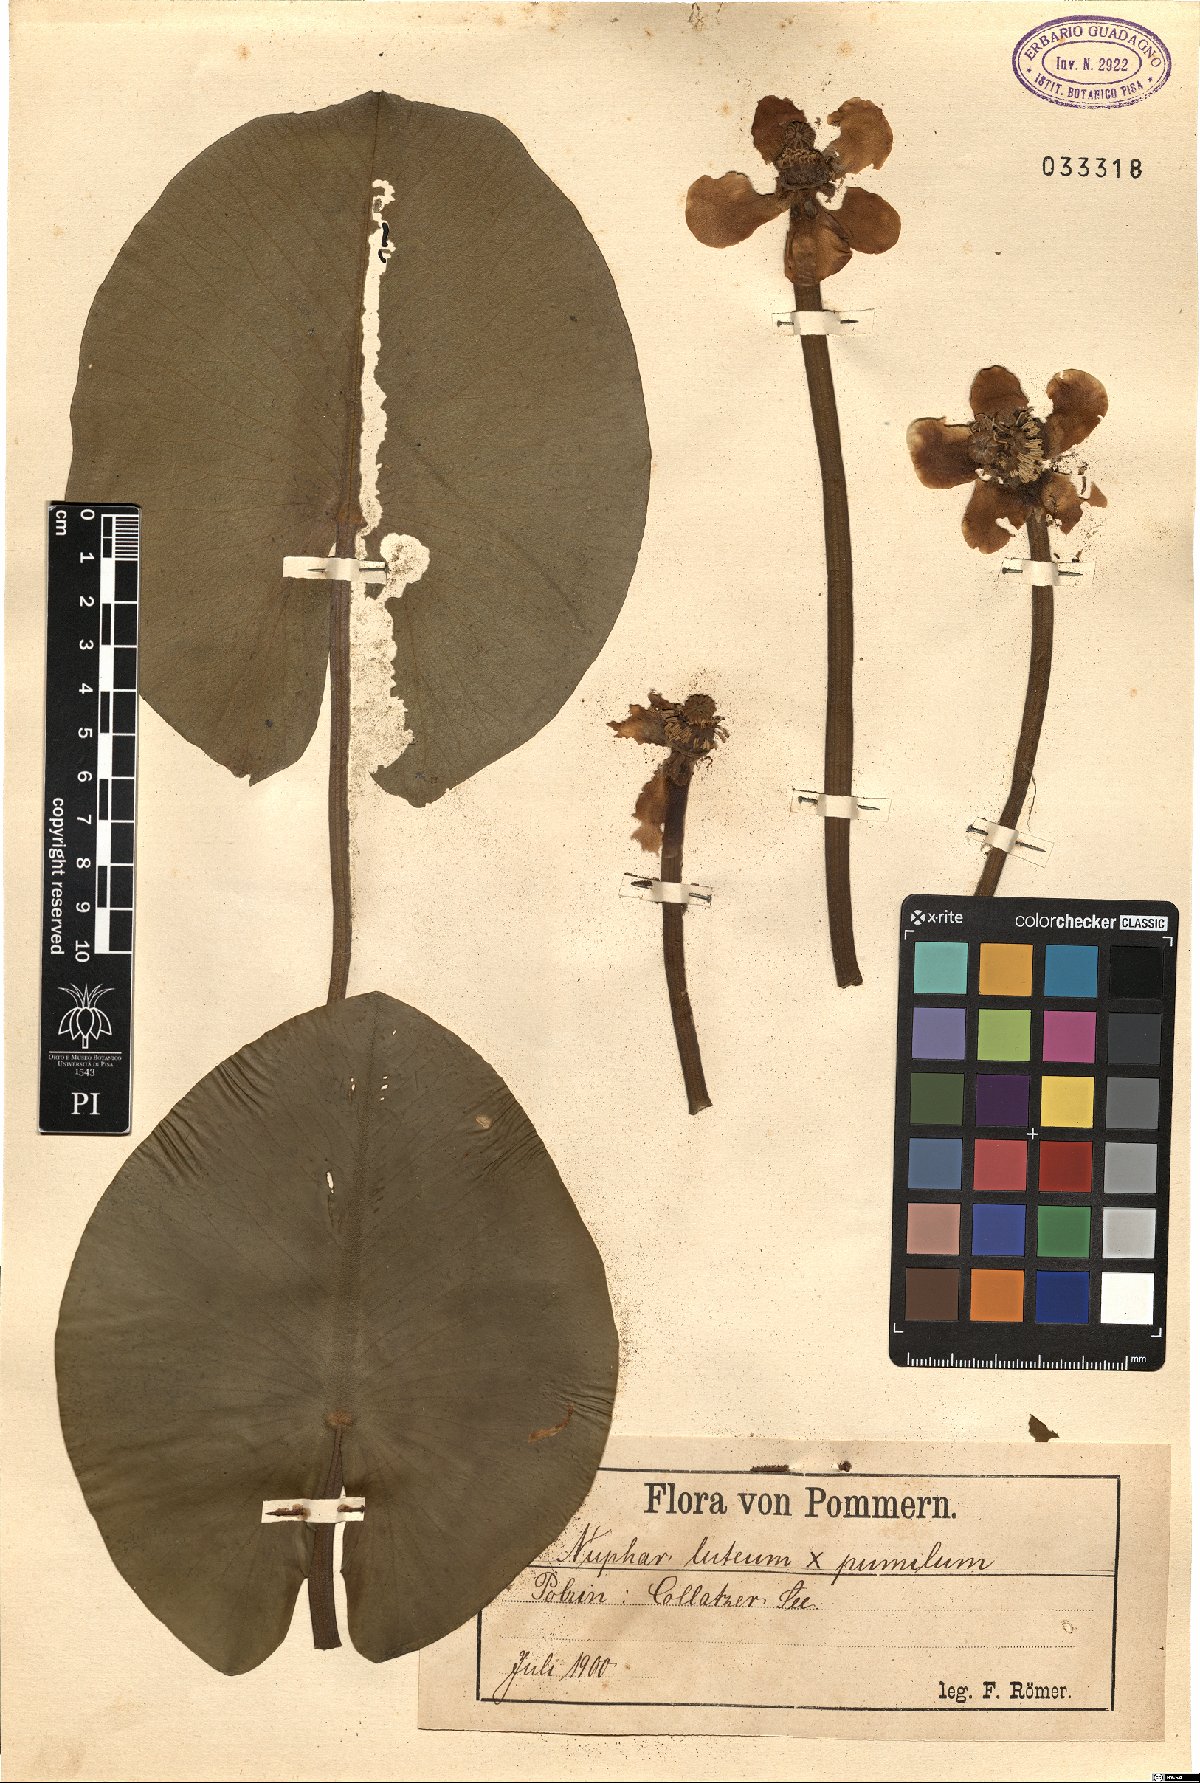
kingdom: Plantae
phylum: Tracheophyta
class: Magnoliopsida
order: Nymphaeales
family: Nymphaeaceae
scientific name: Nymphaeaceae
